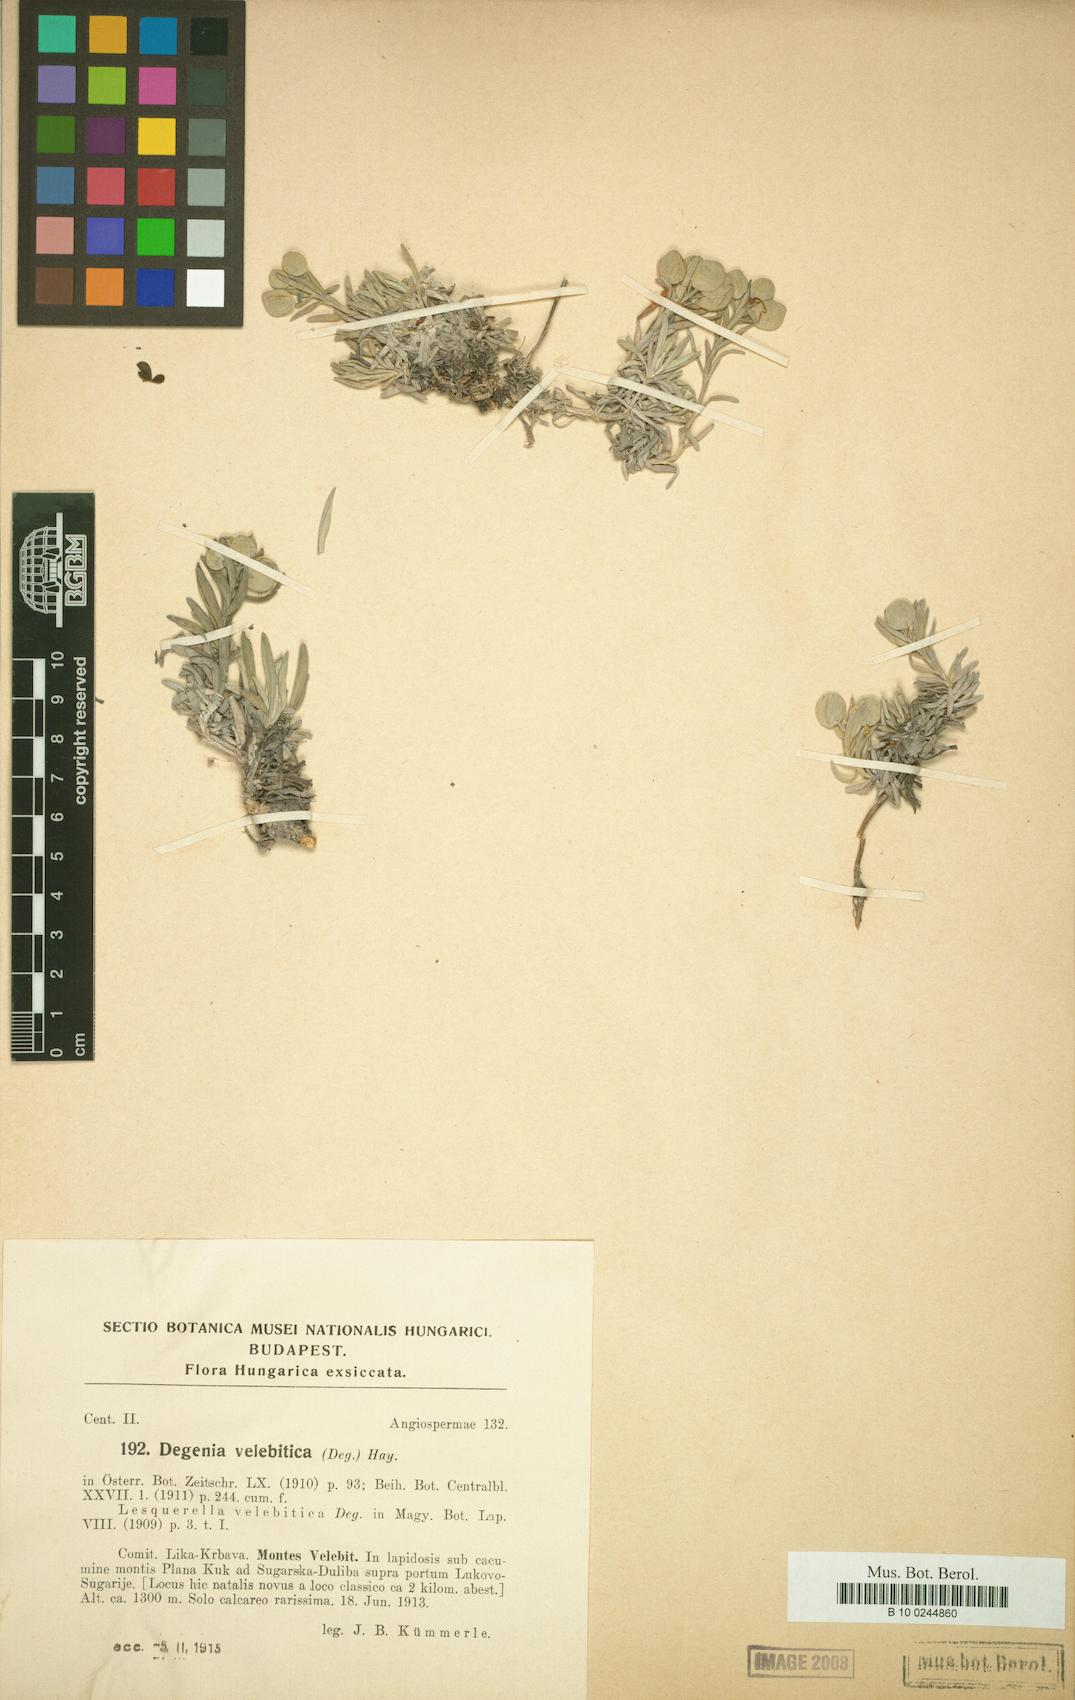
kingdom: Plantae
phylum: Tracheophyta
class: Magnoliopsida
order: Brassicales
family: Brassicaceae
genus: Degenia
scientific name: Degenia velebitica
